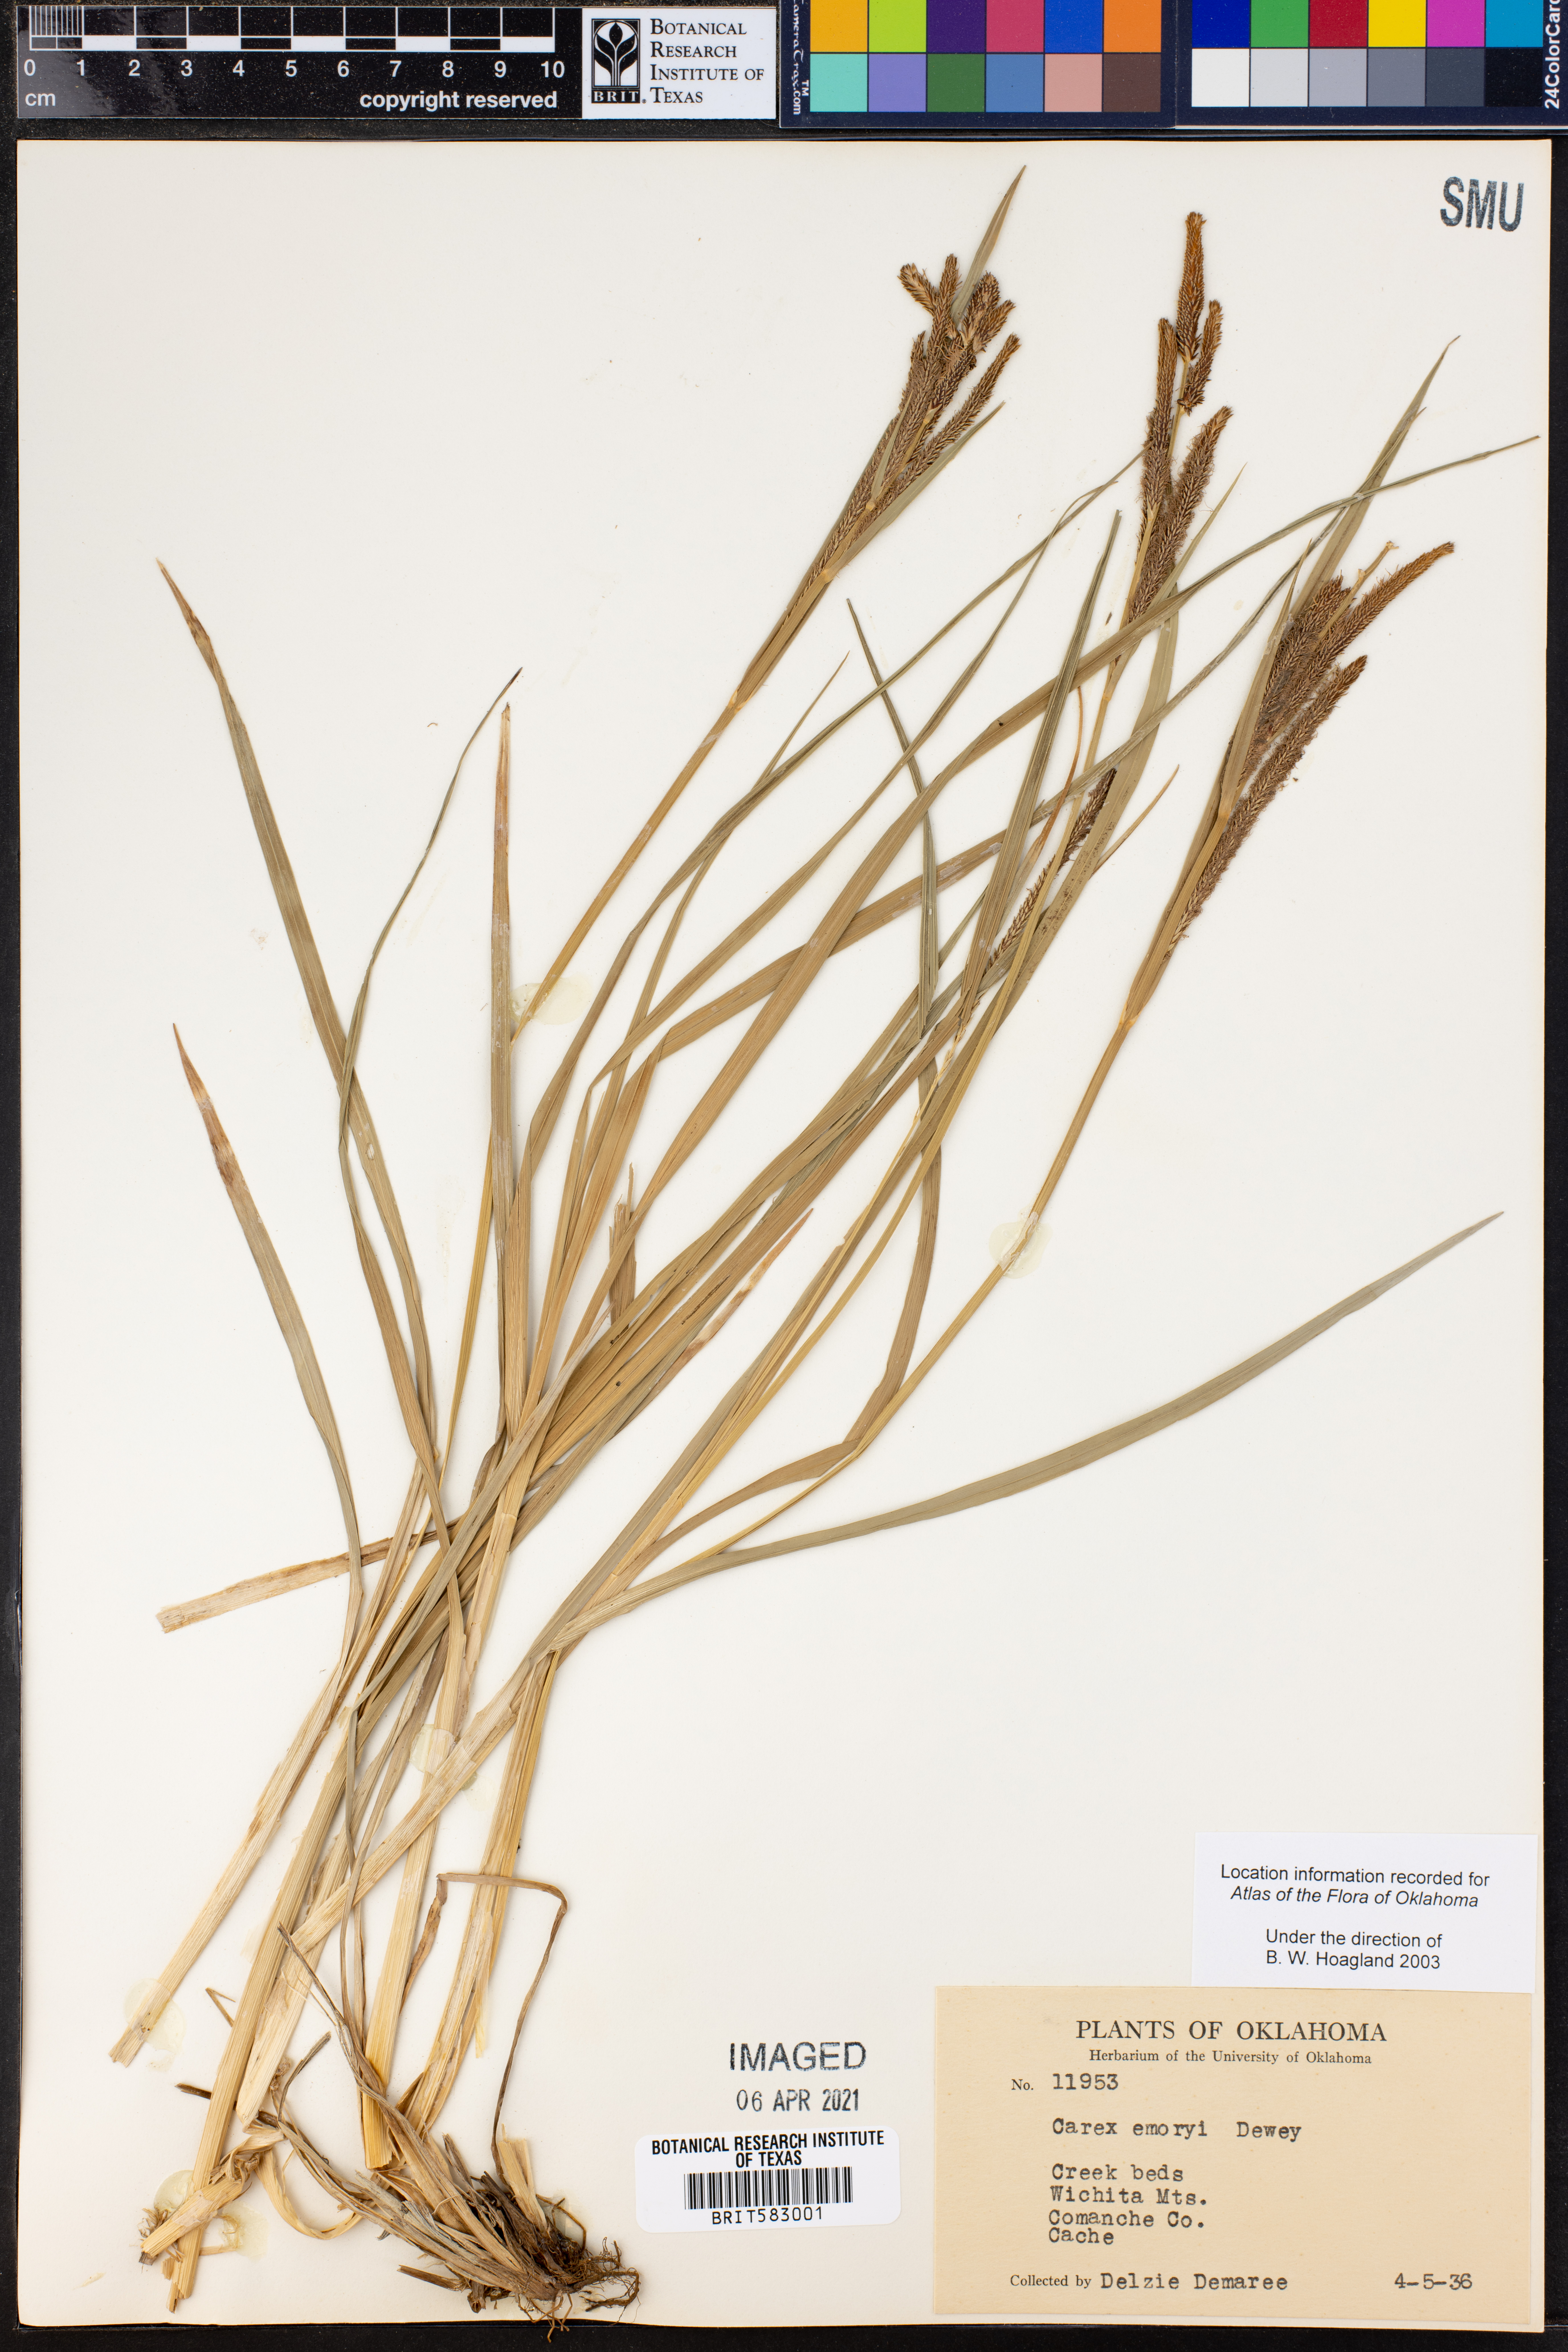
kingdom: Plantae
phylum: Tracheophyta
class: Liliopsida
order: Poales
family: Cyperaceae
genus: Carex
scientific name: Carex emoryi
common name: Emory's sedge
